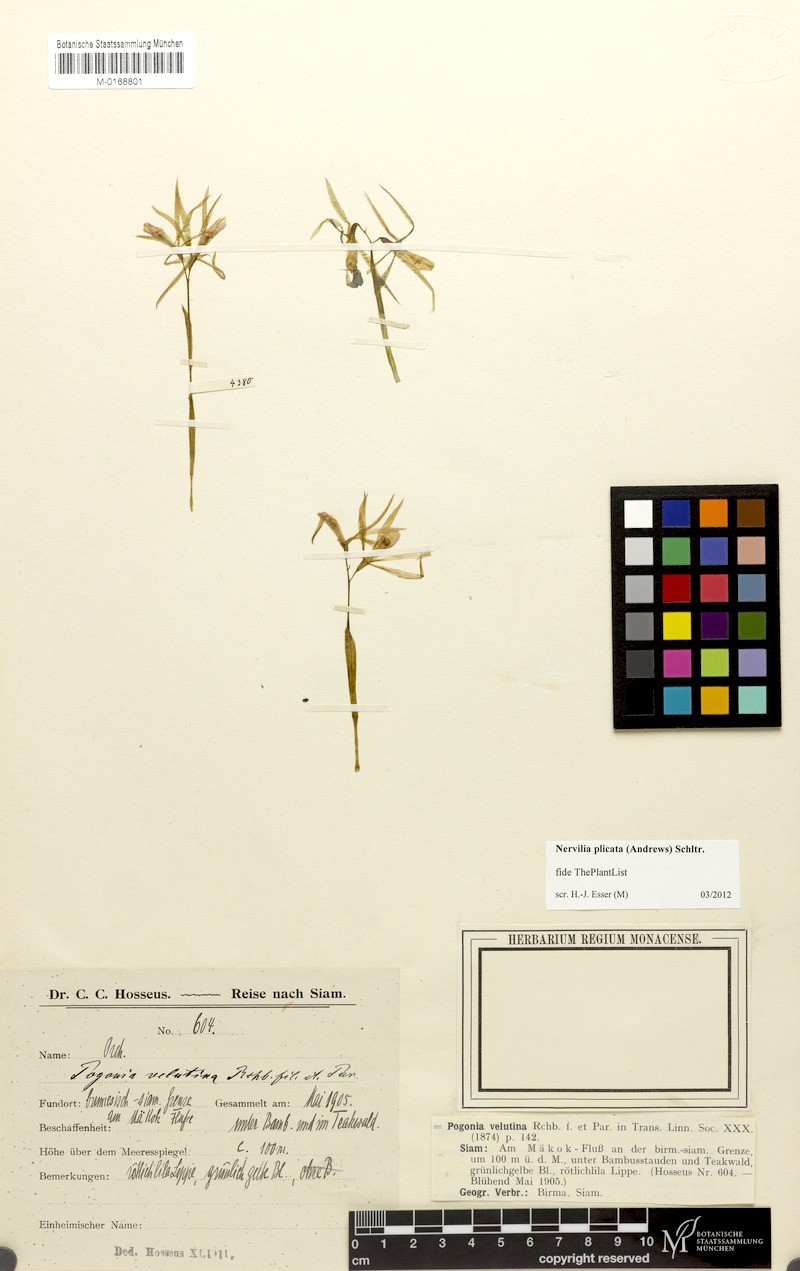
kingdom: Plantae
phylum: Tracheophyta
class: Liliopsida
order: Asparagales
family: Orchidaceae
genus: Nervilia
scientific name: Nervilia plicata
